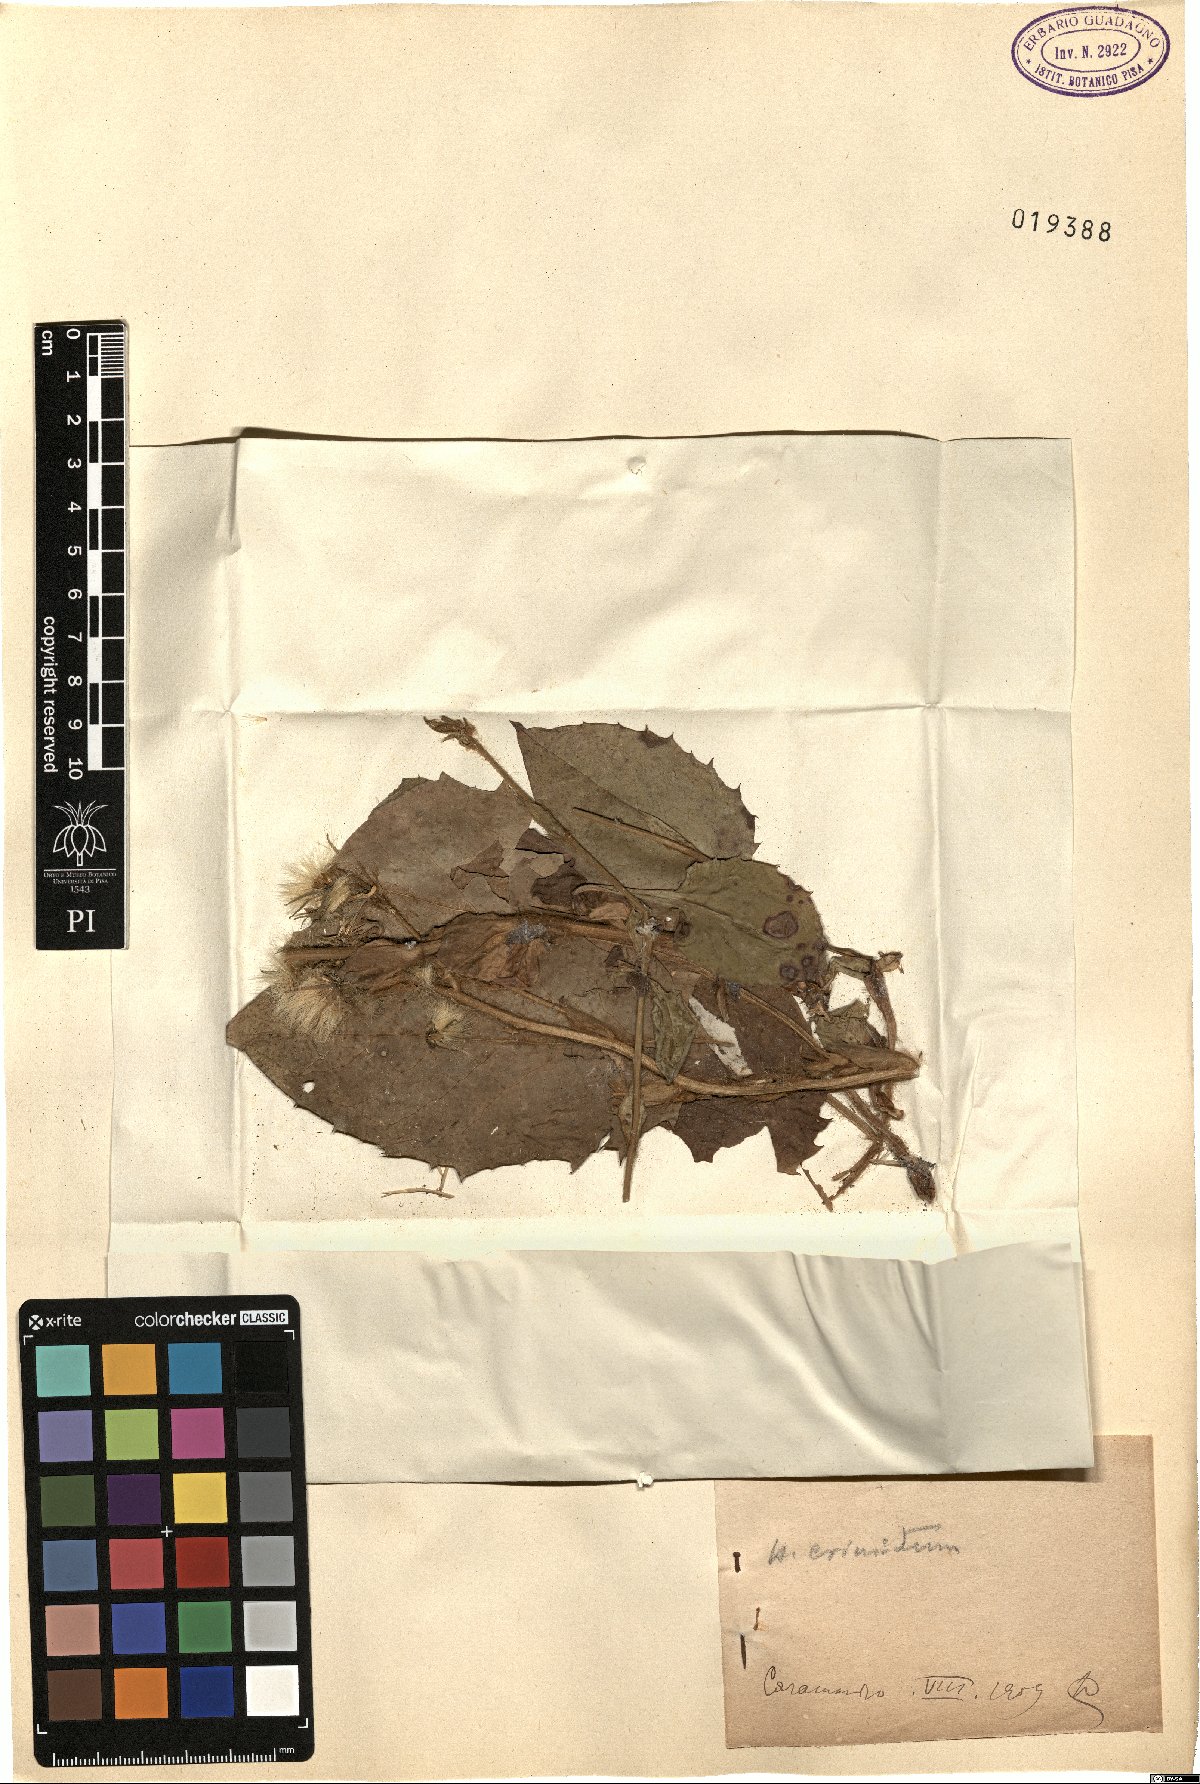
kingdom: Plantae
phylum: Tracheophyta
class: Magnoliopsida
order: Asterales
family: Asteraceae
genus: Hieracium
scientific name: Hieracium racemosum
